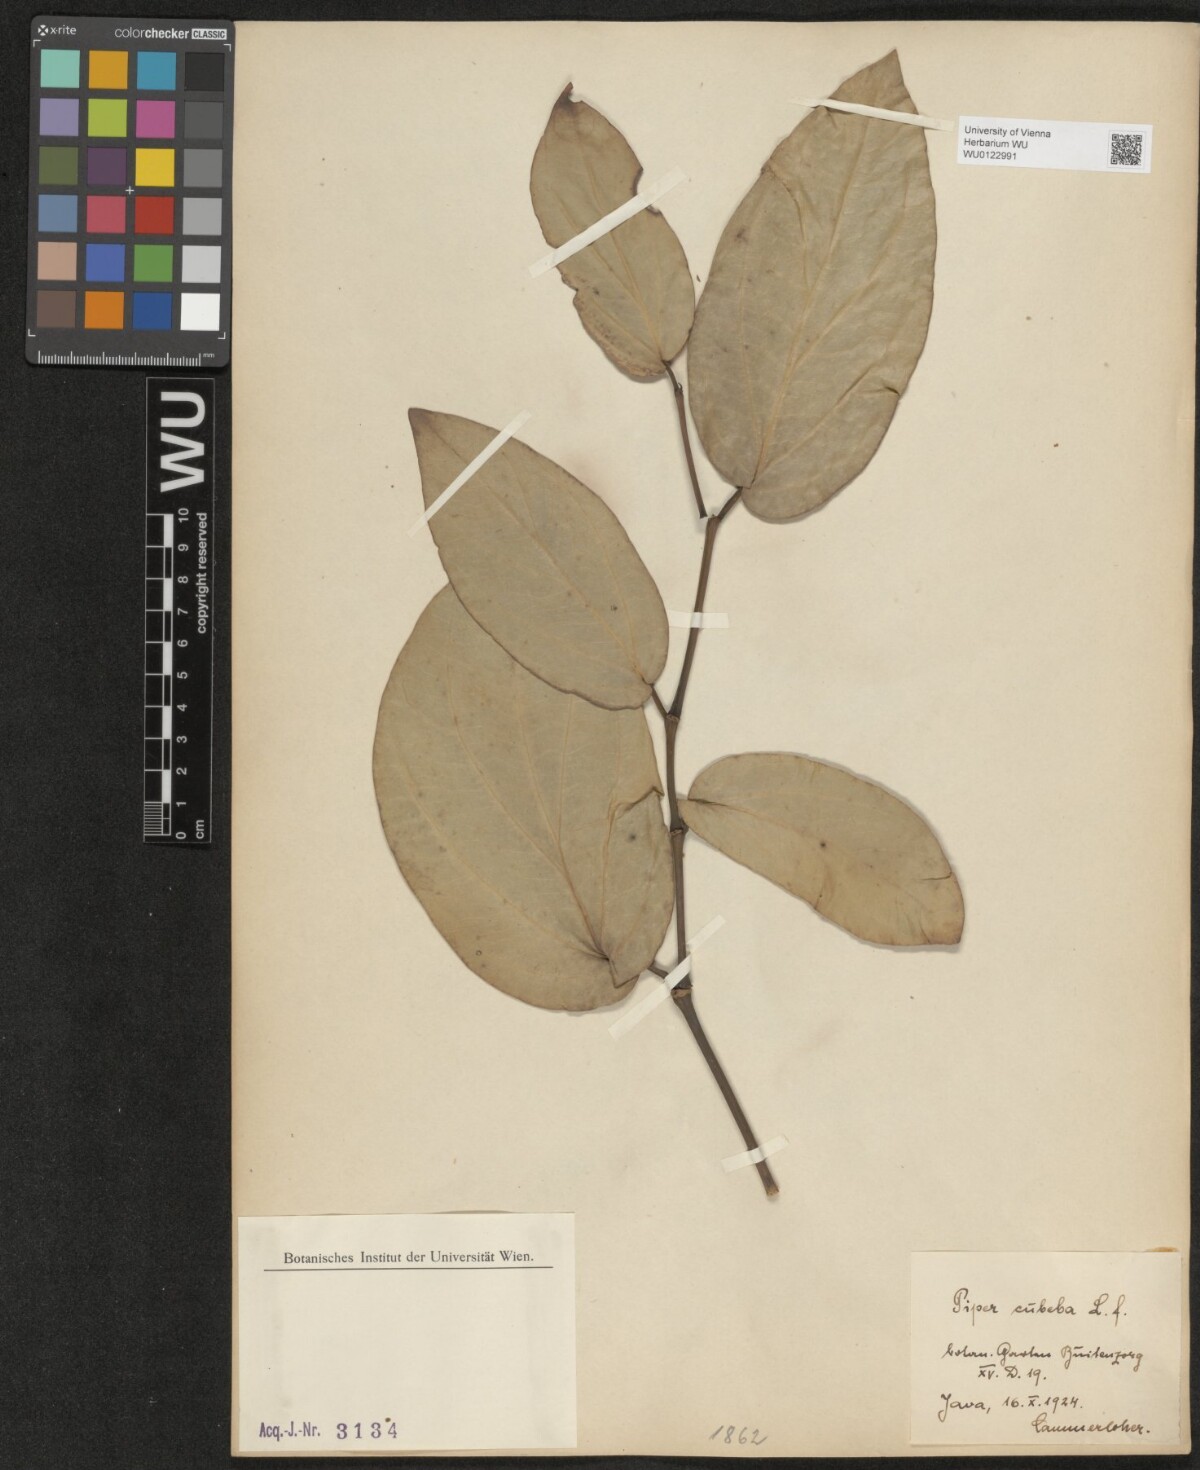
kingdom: Plantae
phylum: Tracheophyta
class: Magnoliopsida
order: Piperales
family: Piperaceae
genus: Piper
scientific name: Piper cubeba
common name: Cubeb
